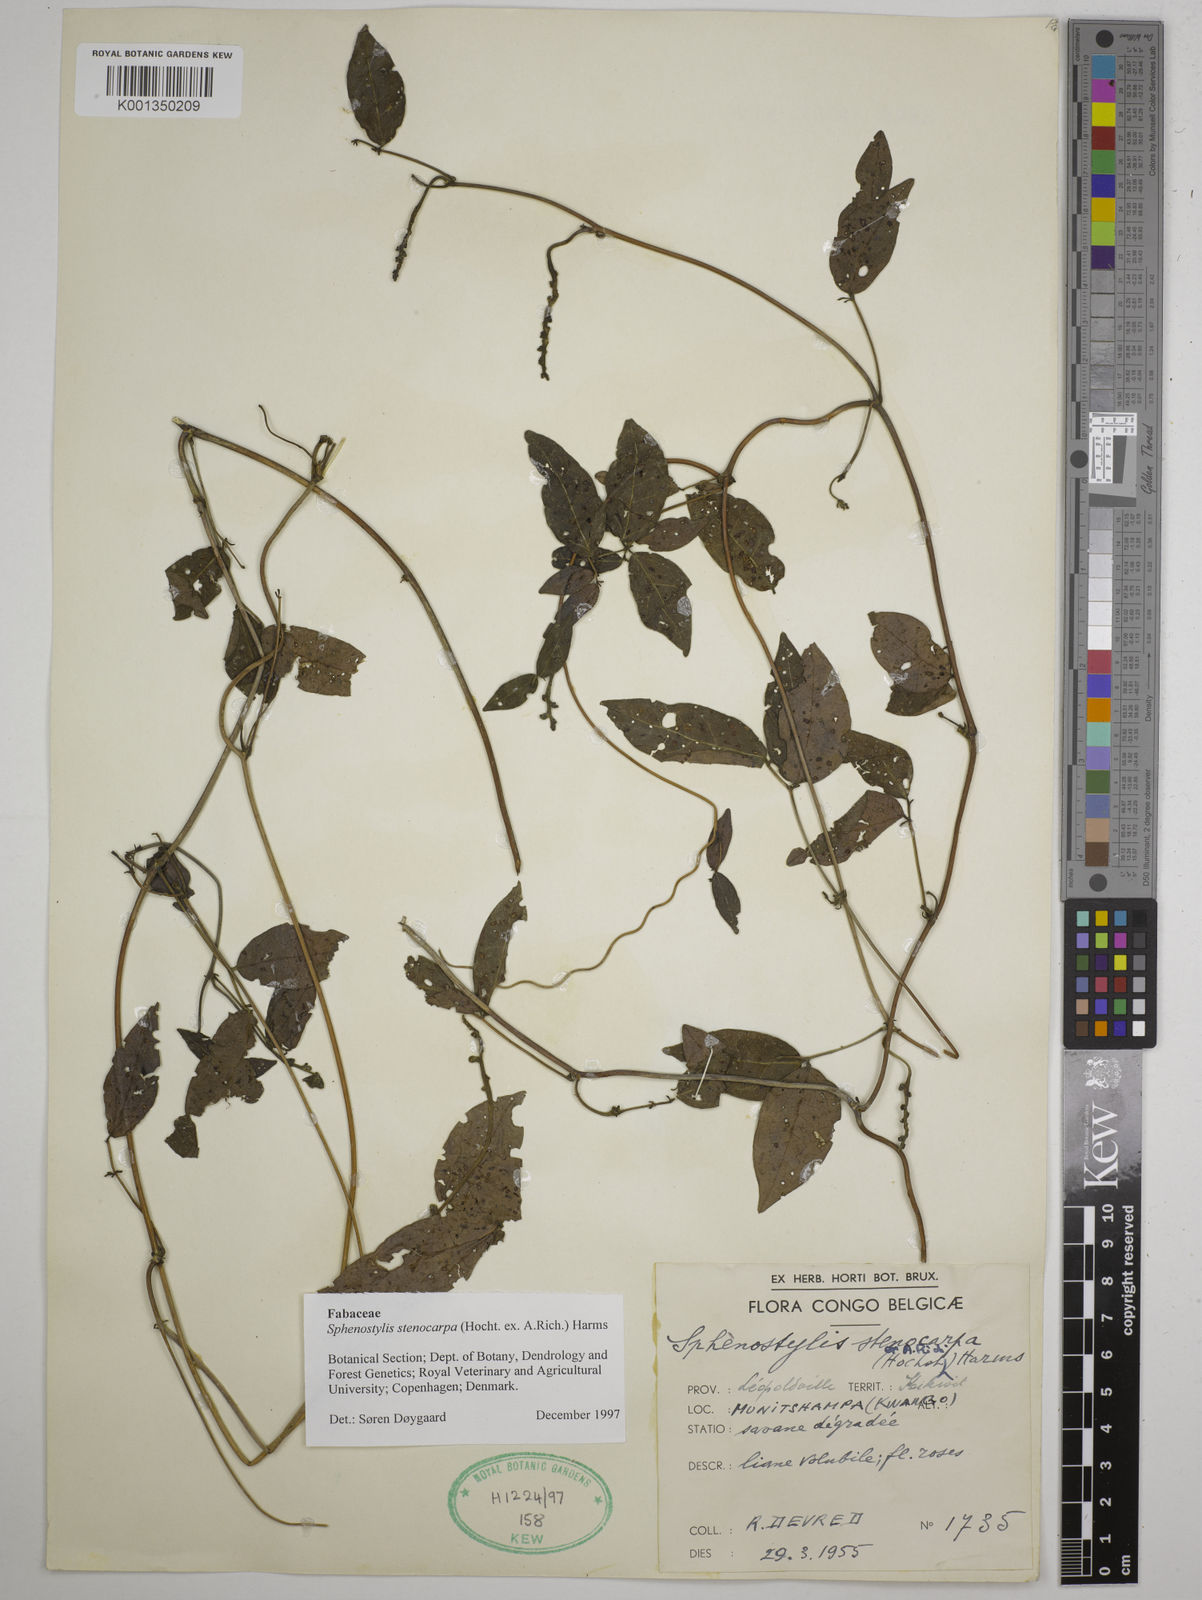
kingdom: Plantae
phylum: Tracheophyta
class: Magnoliopsida
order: Fabales
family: Fabaceae
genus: Sphenostylis
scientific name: Sphenostylis stenocarpa
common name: Yam-pea
